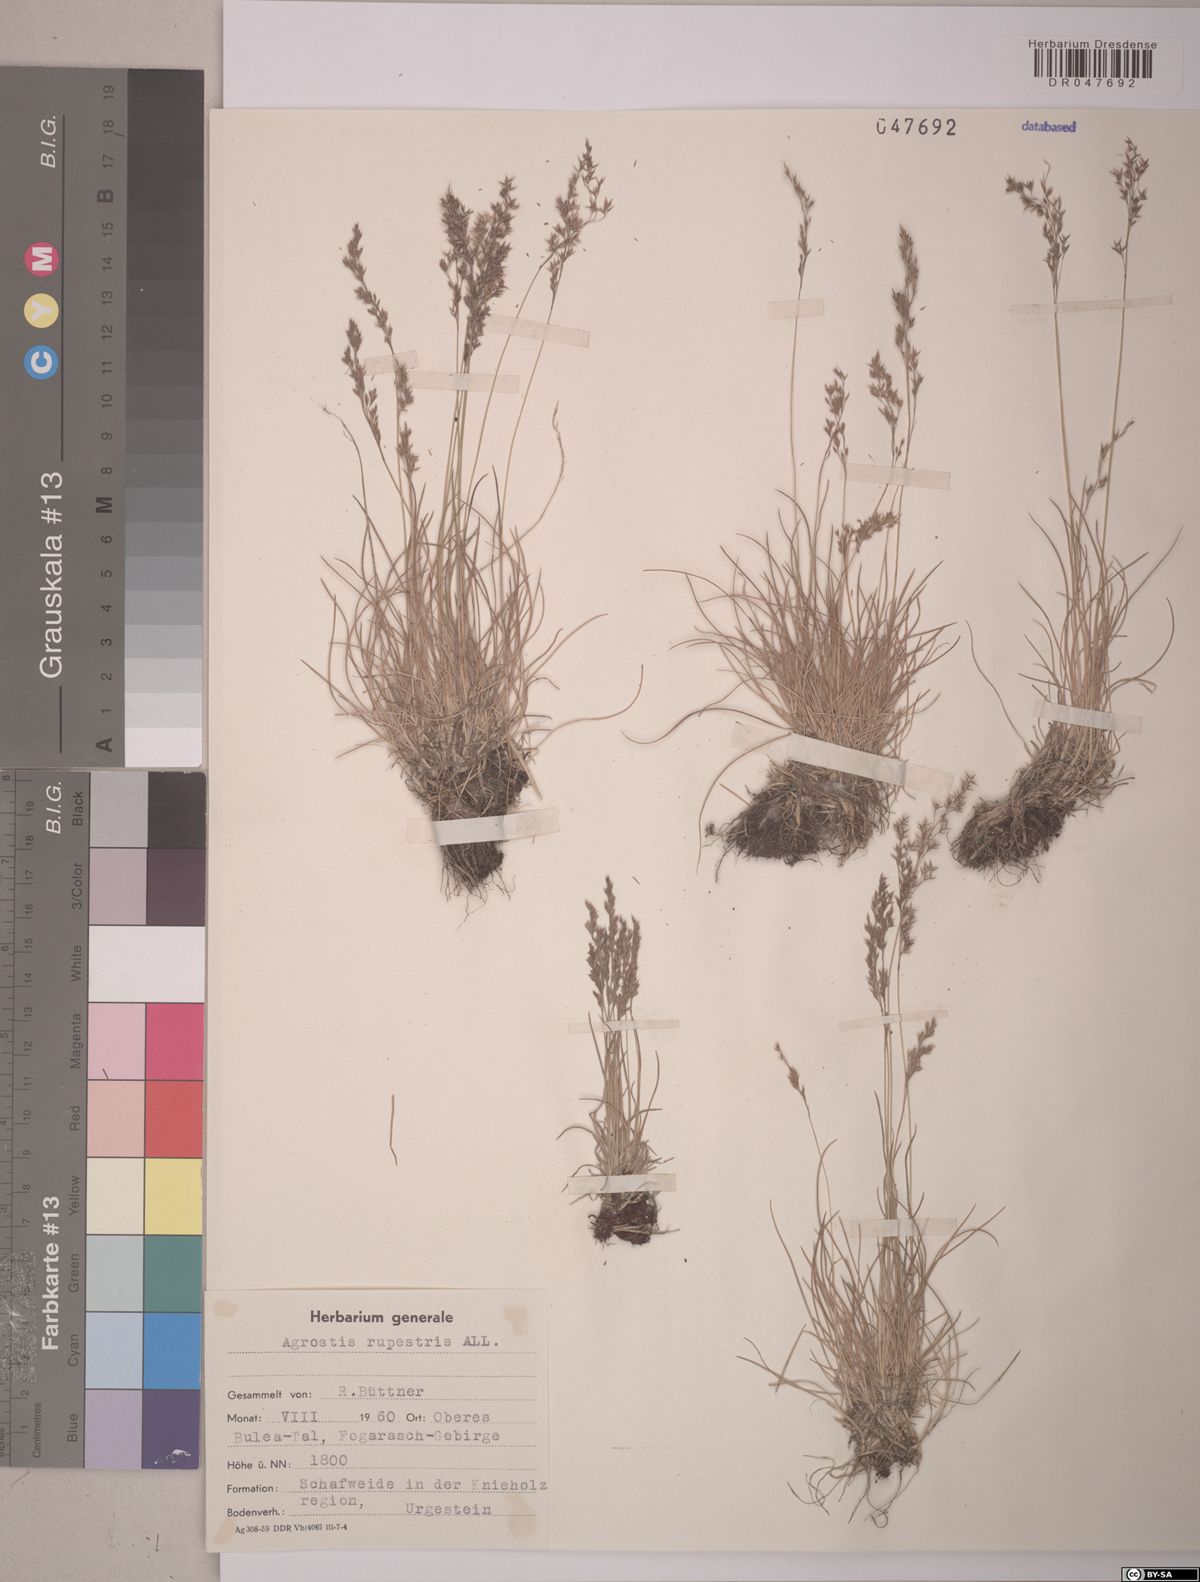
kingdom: Plantae
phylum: Tracheophyta
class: Liliopsida
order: Poales
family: Poaceae
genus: Agrostis
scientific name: Agrostis rupestris
